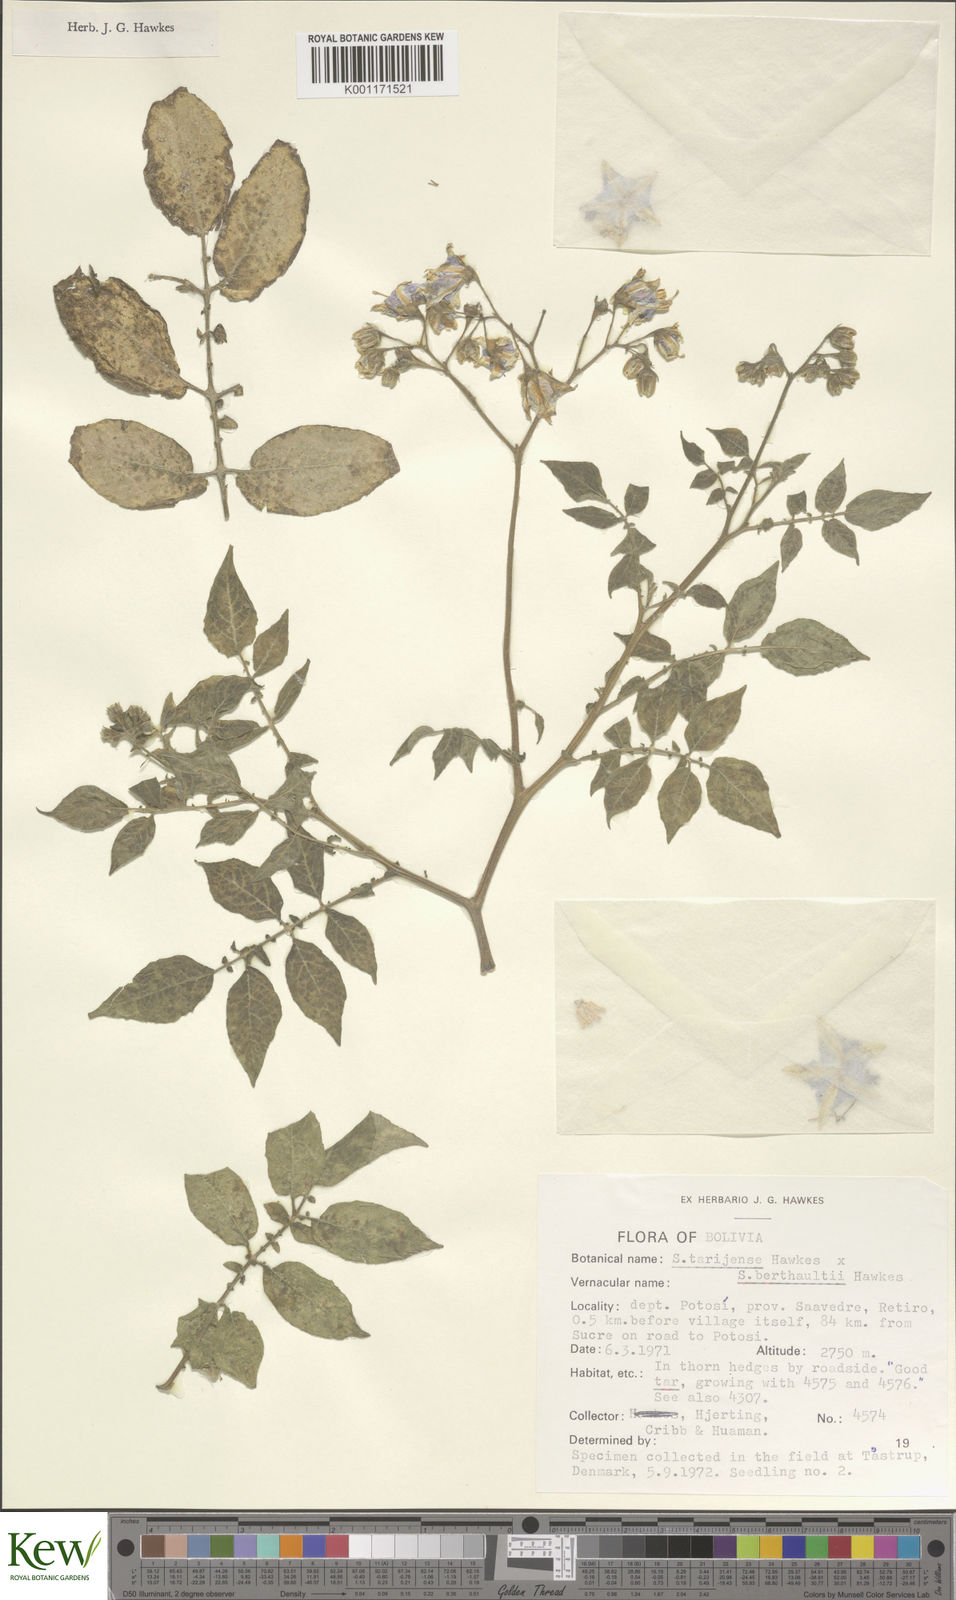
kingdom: Plantae
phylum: Tracheophyta
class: Magnoliopsida
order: Solanales
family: Solanaceae
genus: Solanum
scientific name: Solanum tarijense
